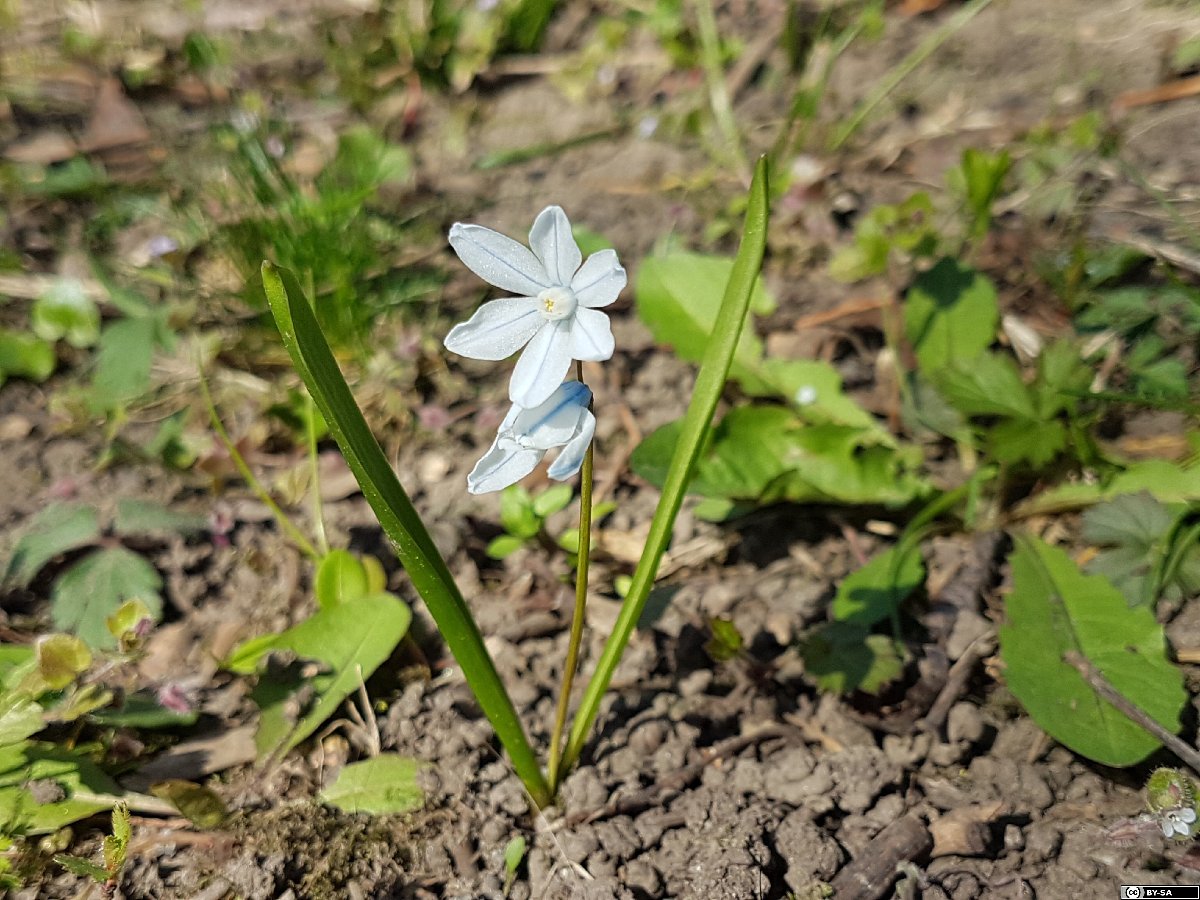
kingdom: Plantae
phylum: Tracheophyta
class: Liliopsida
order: Asparagales
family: Asparagaceae
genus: Puschkinia
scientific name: Puschkinia scilloides
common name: Striped squill
